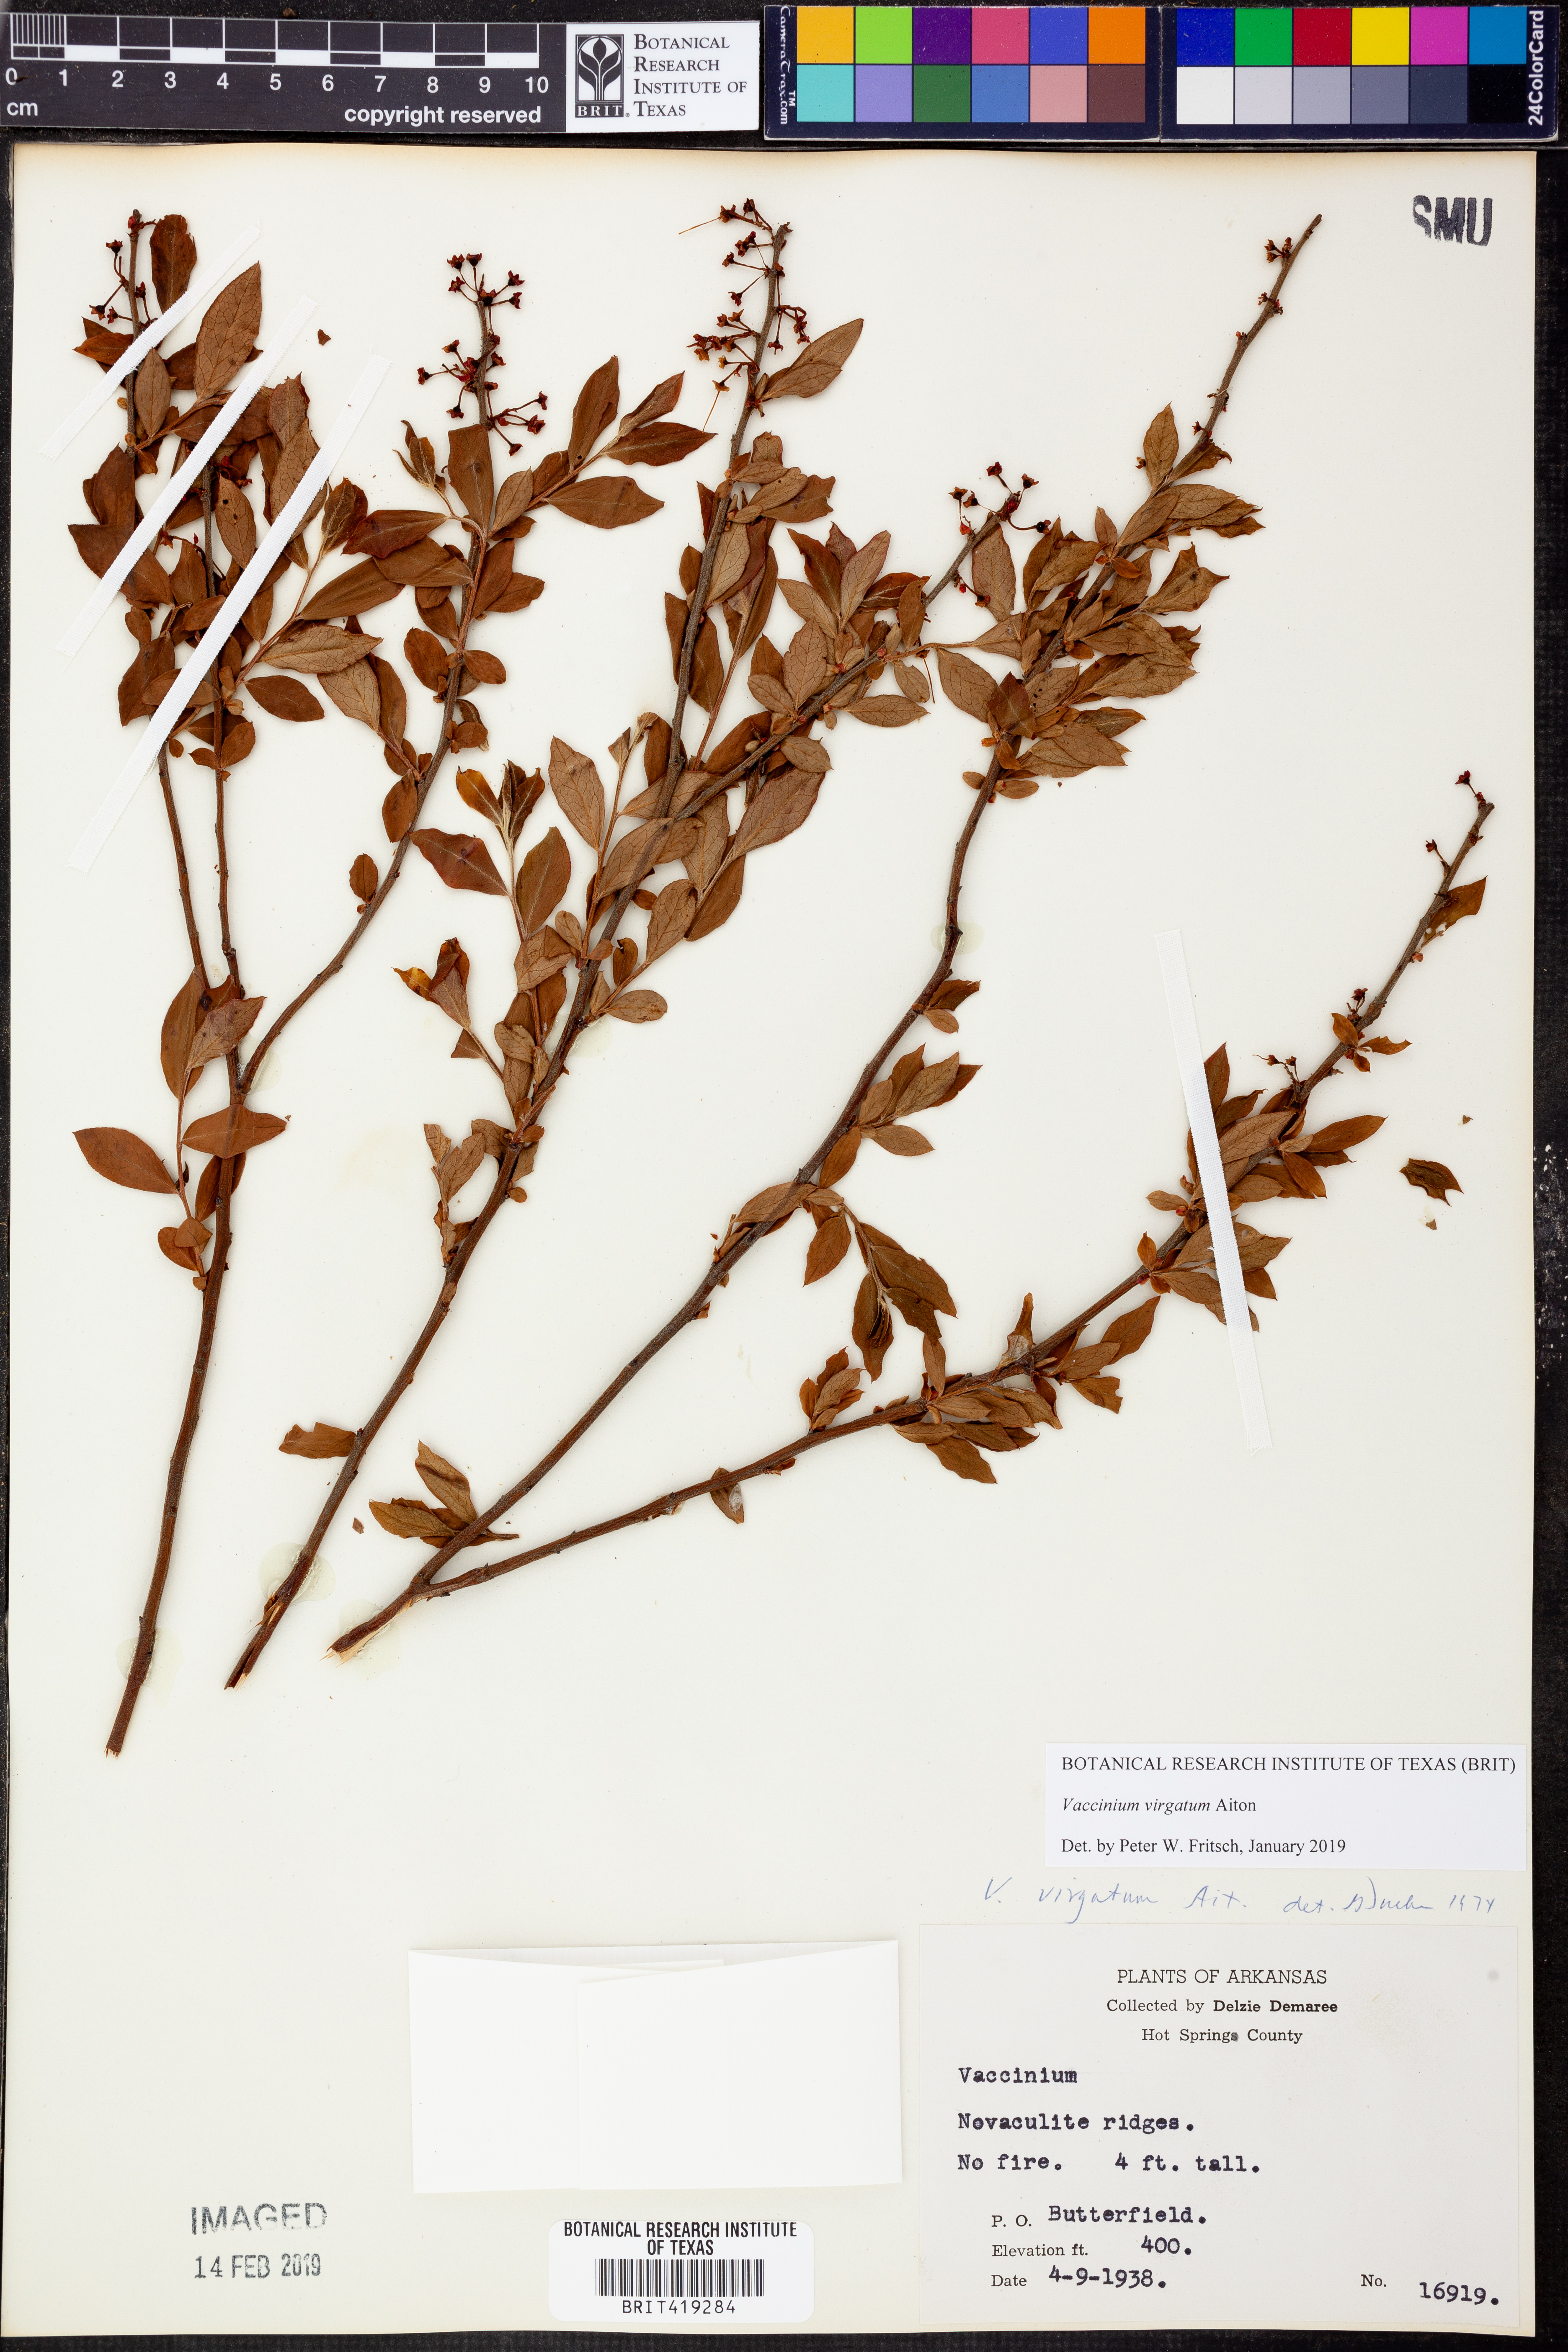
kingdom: Plantae
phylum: Tracheophyta
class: Magnoliopsida
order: Ericales
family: Ericaceae
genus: Vaccinium
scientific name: Vaccinium corymbosum
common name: Blueberry
